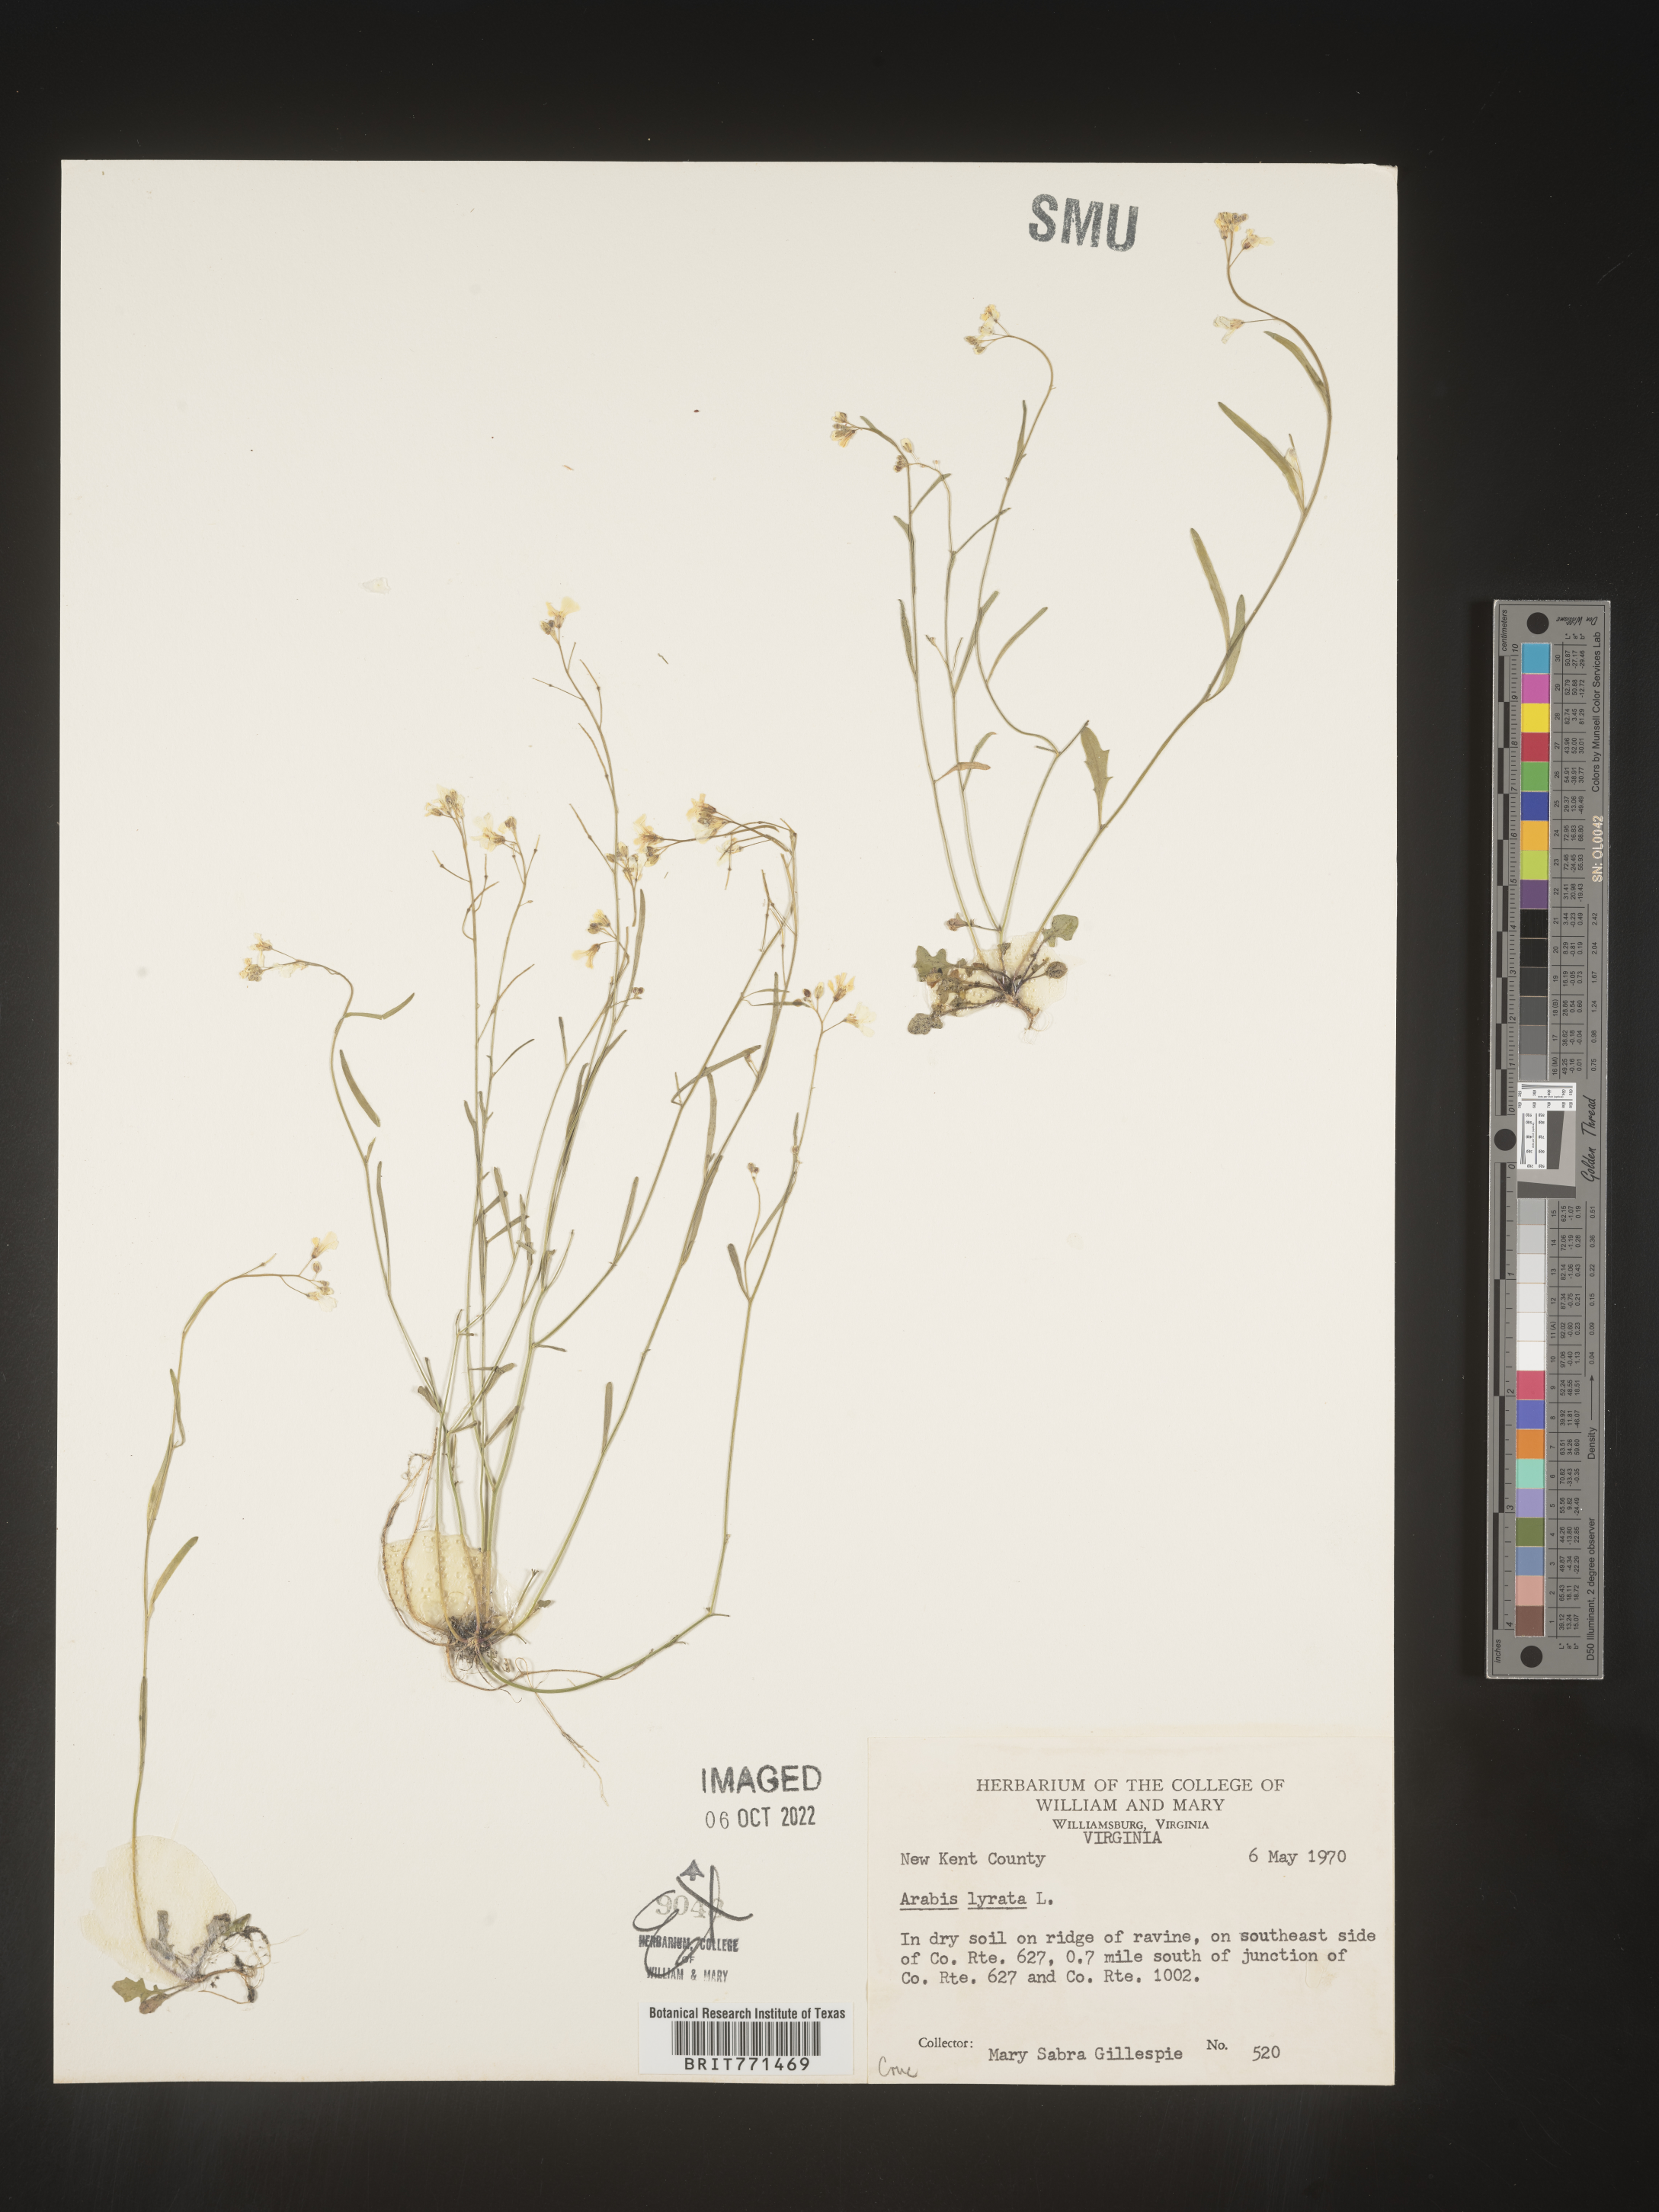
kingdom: Plantae
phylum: Tracheophyta
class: Magnoliopsida
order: Brassicales
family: Brassicaceae
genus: Arabidopsis
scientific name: Arabidopsis lyrata
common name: Lyrate rockcress
